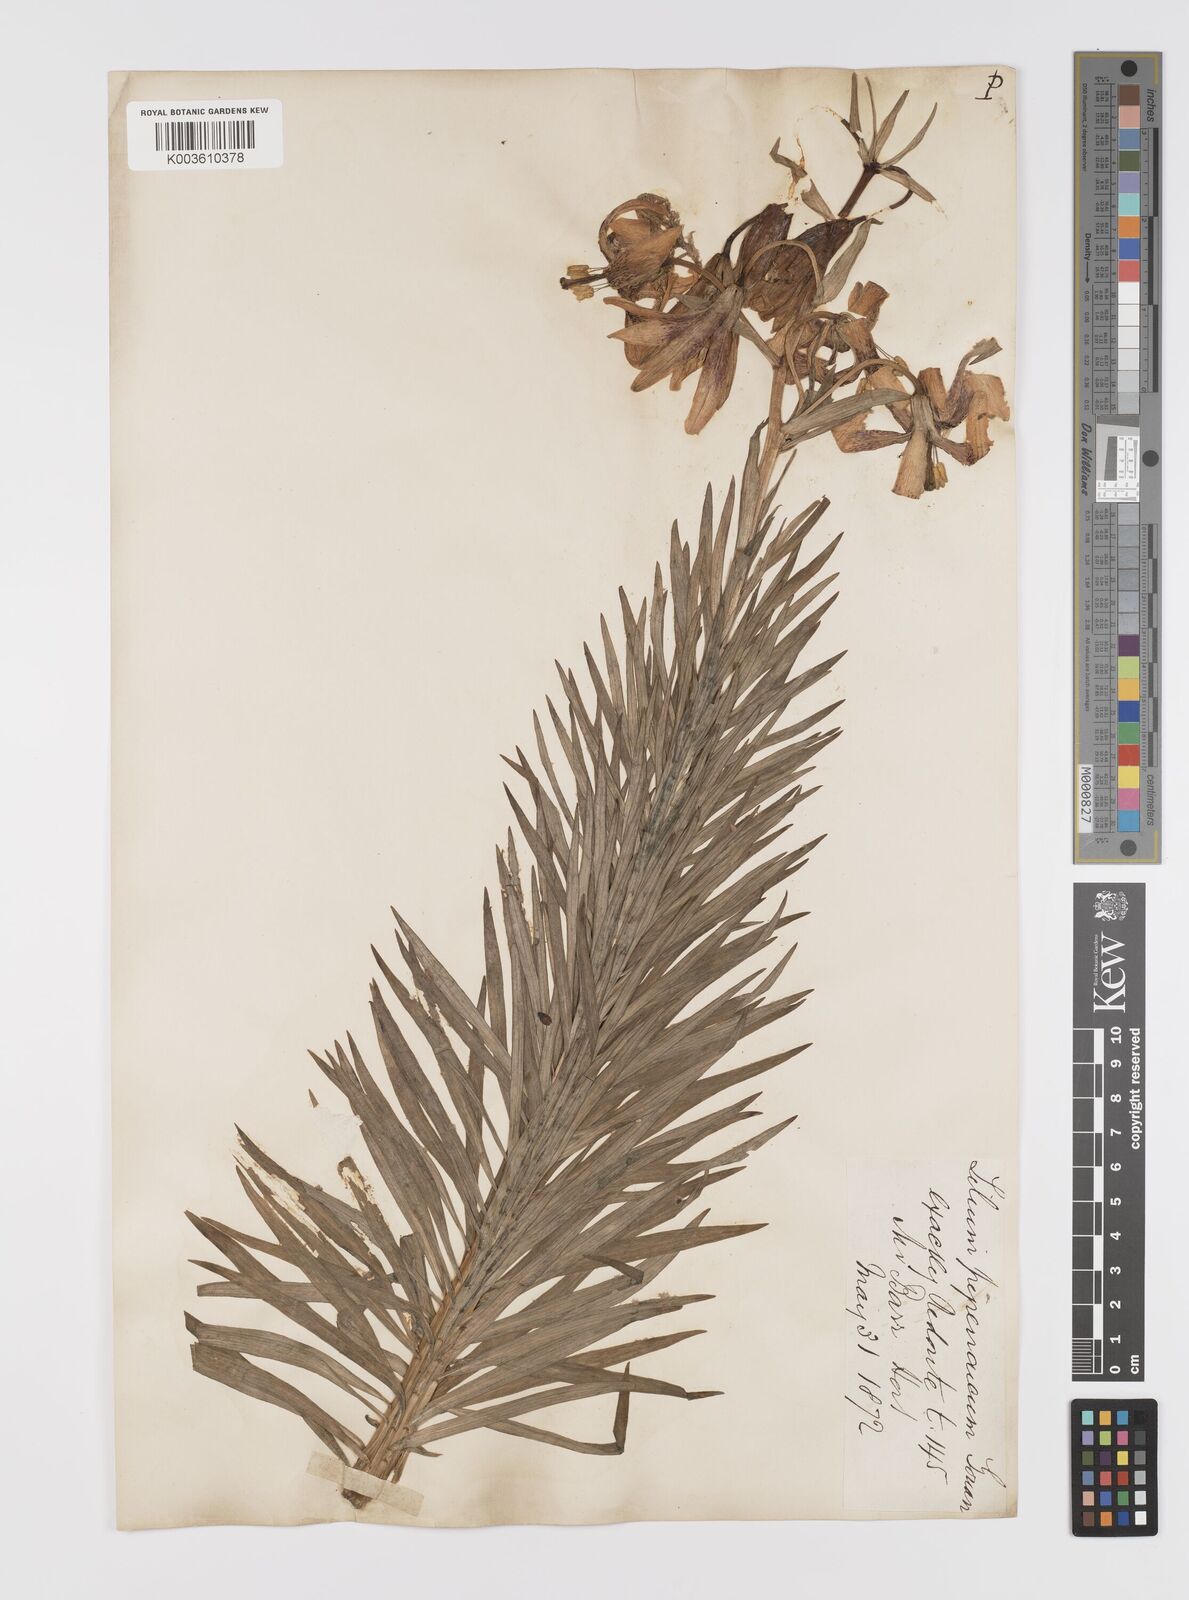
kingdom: Plantae
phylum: Tracheophyta
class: Liliopsida
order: Liliales
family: Liliaceae
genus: Lilium
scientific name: Lilium pyrenaicum
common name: Pyrenean lily
